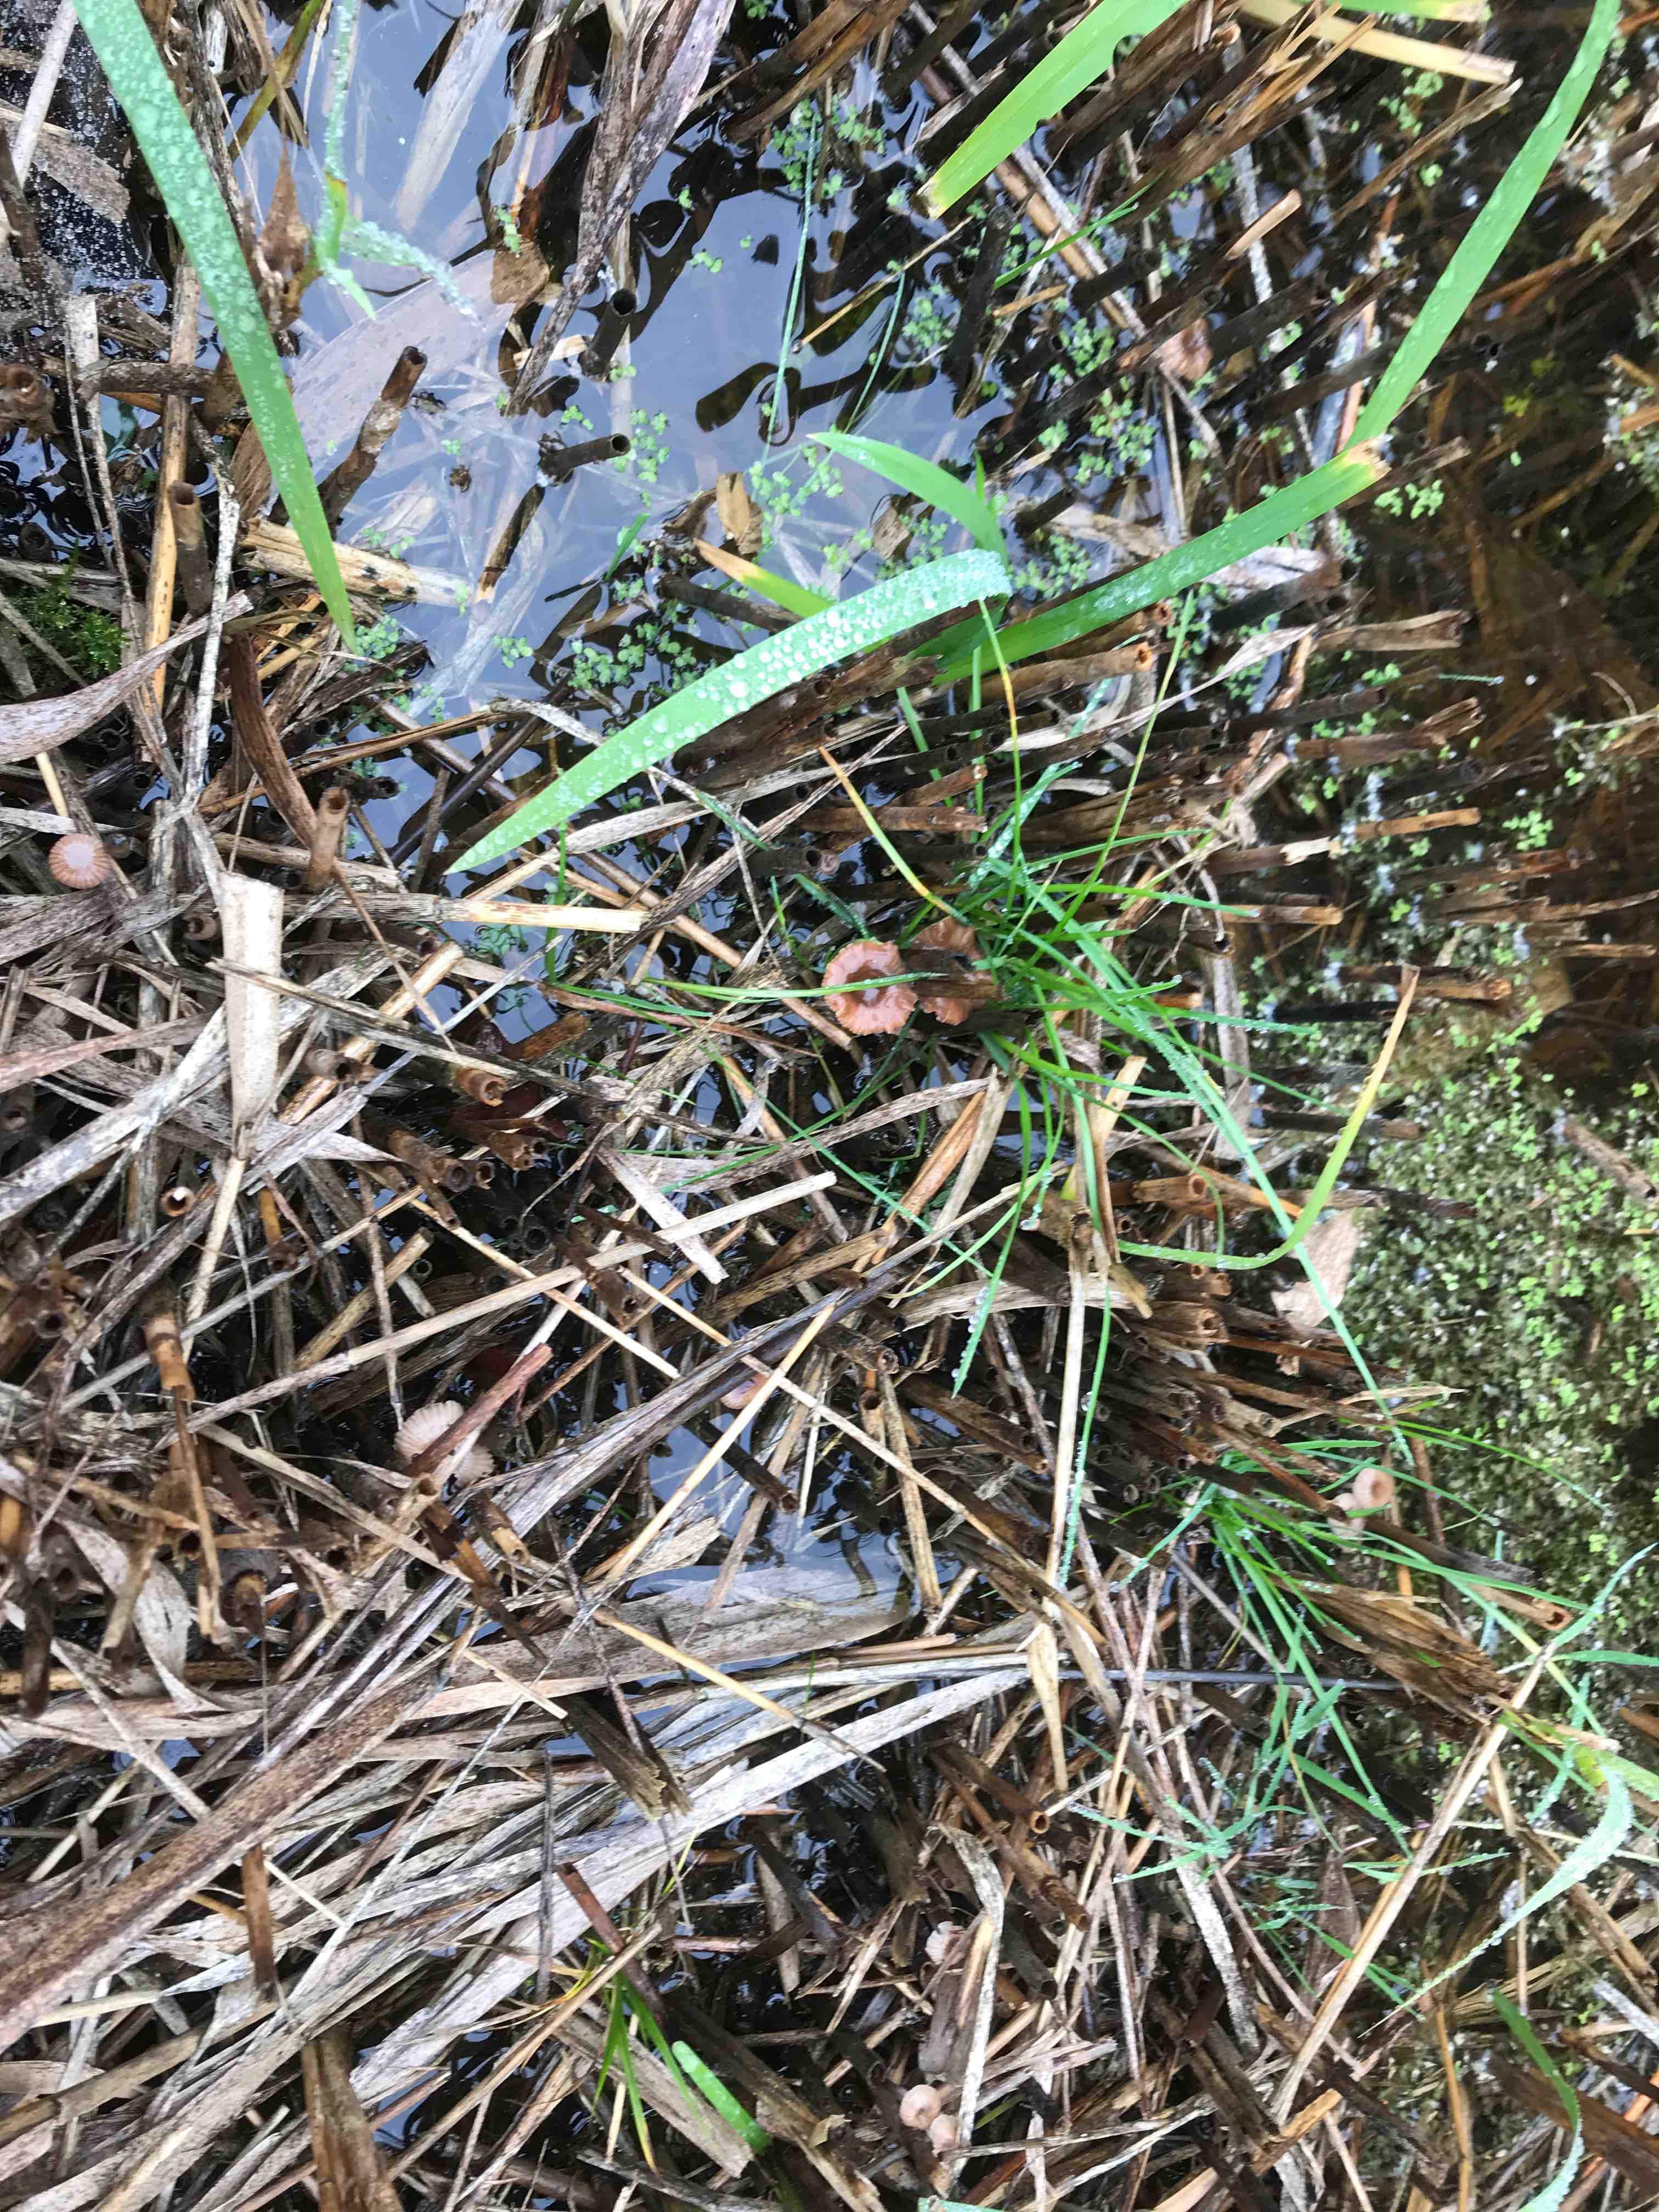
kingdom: Fungi
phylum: Basidiomycota
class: Agaricomycetes
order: Agaricales
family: Mycenaceae
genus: Mycena
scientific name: Mycena belliae
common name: tagrørs-huesvamp
